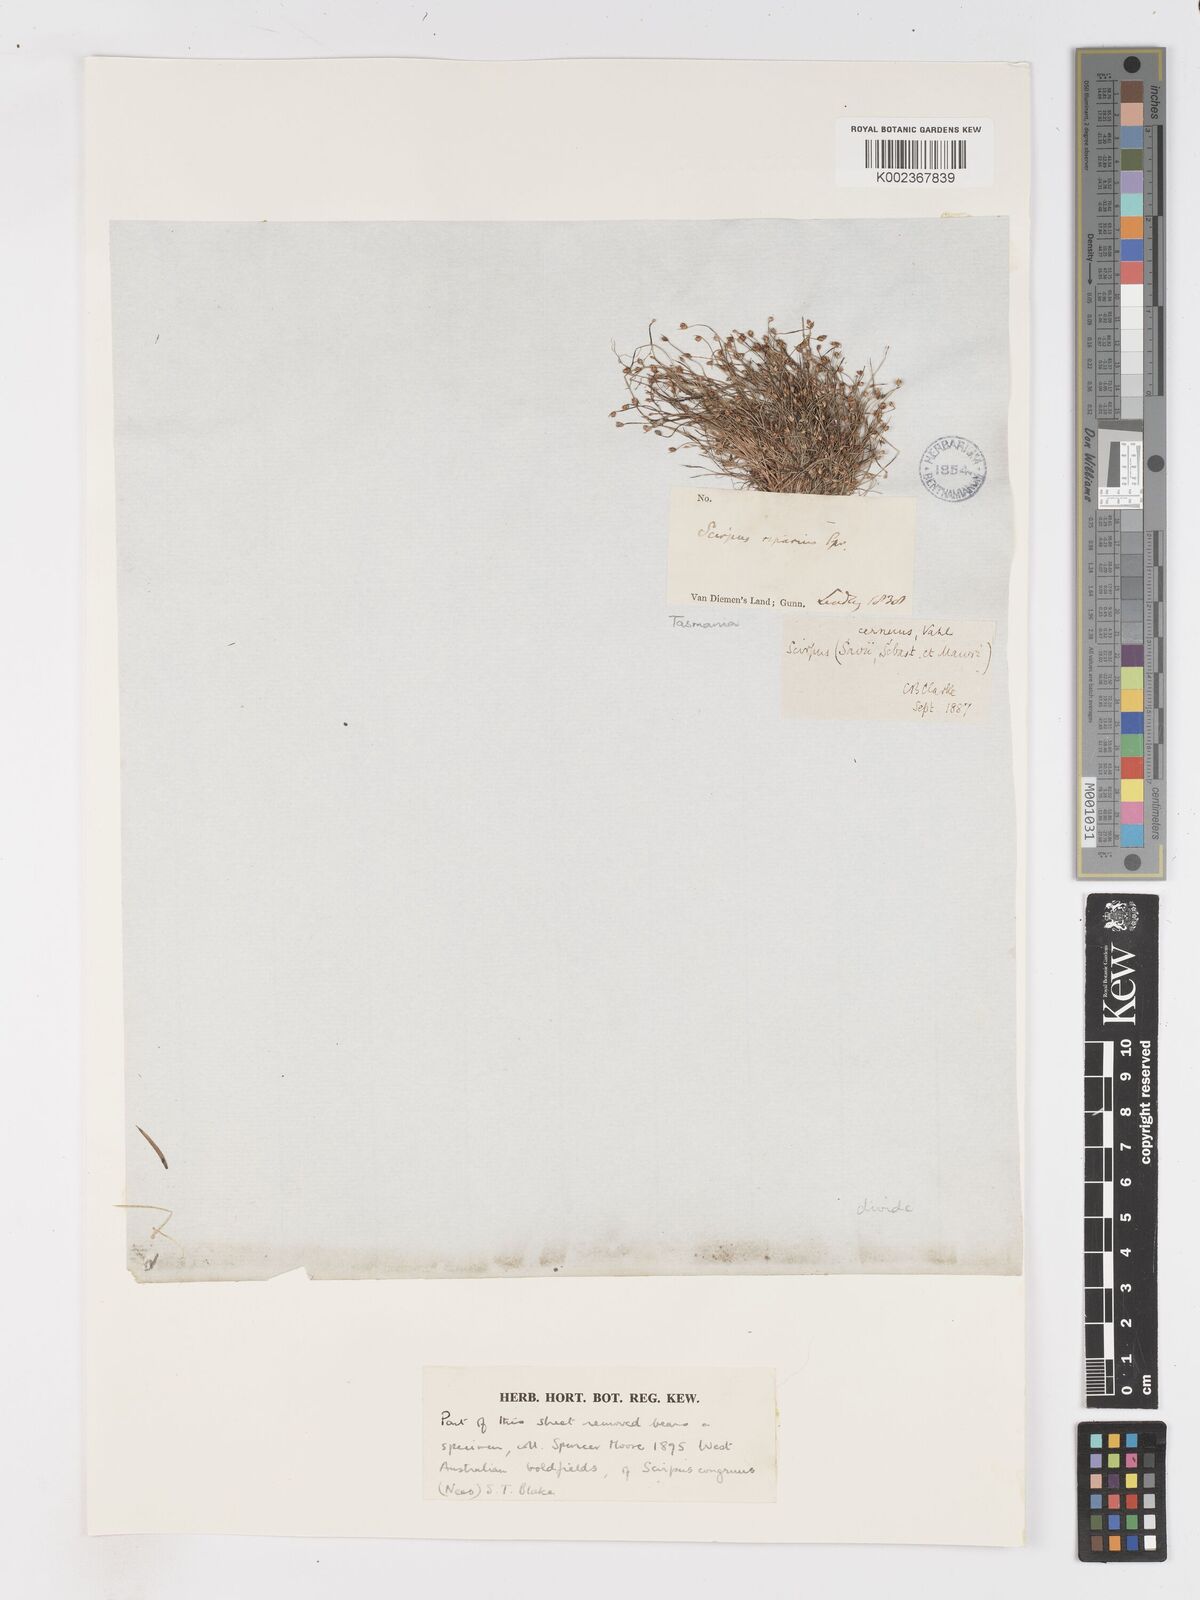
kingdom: Plantae
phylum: Tracheophyta
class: Liliopsida
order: Poales
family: Cyperaceae
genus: Isolepis
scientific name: Isolepis cernua
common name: Slender club-rush
